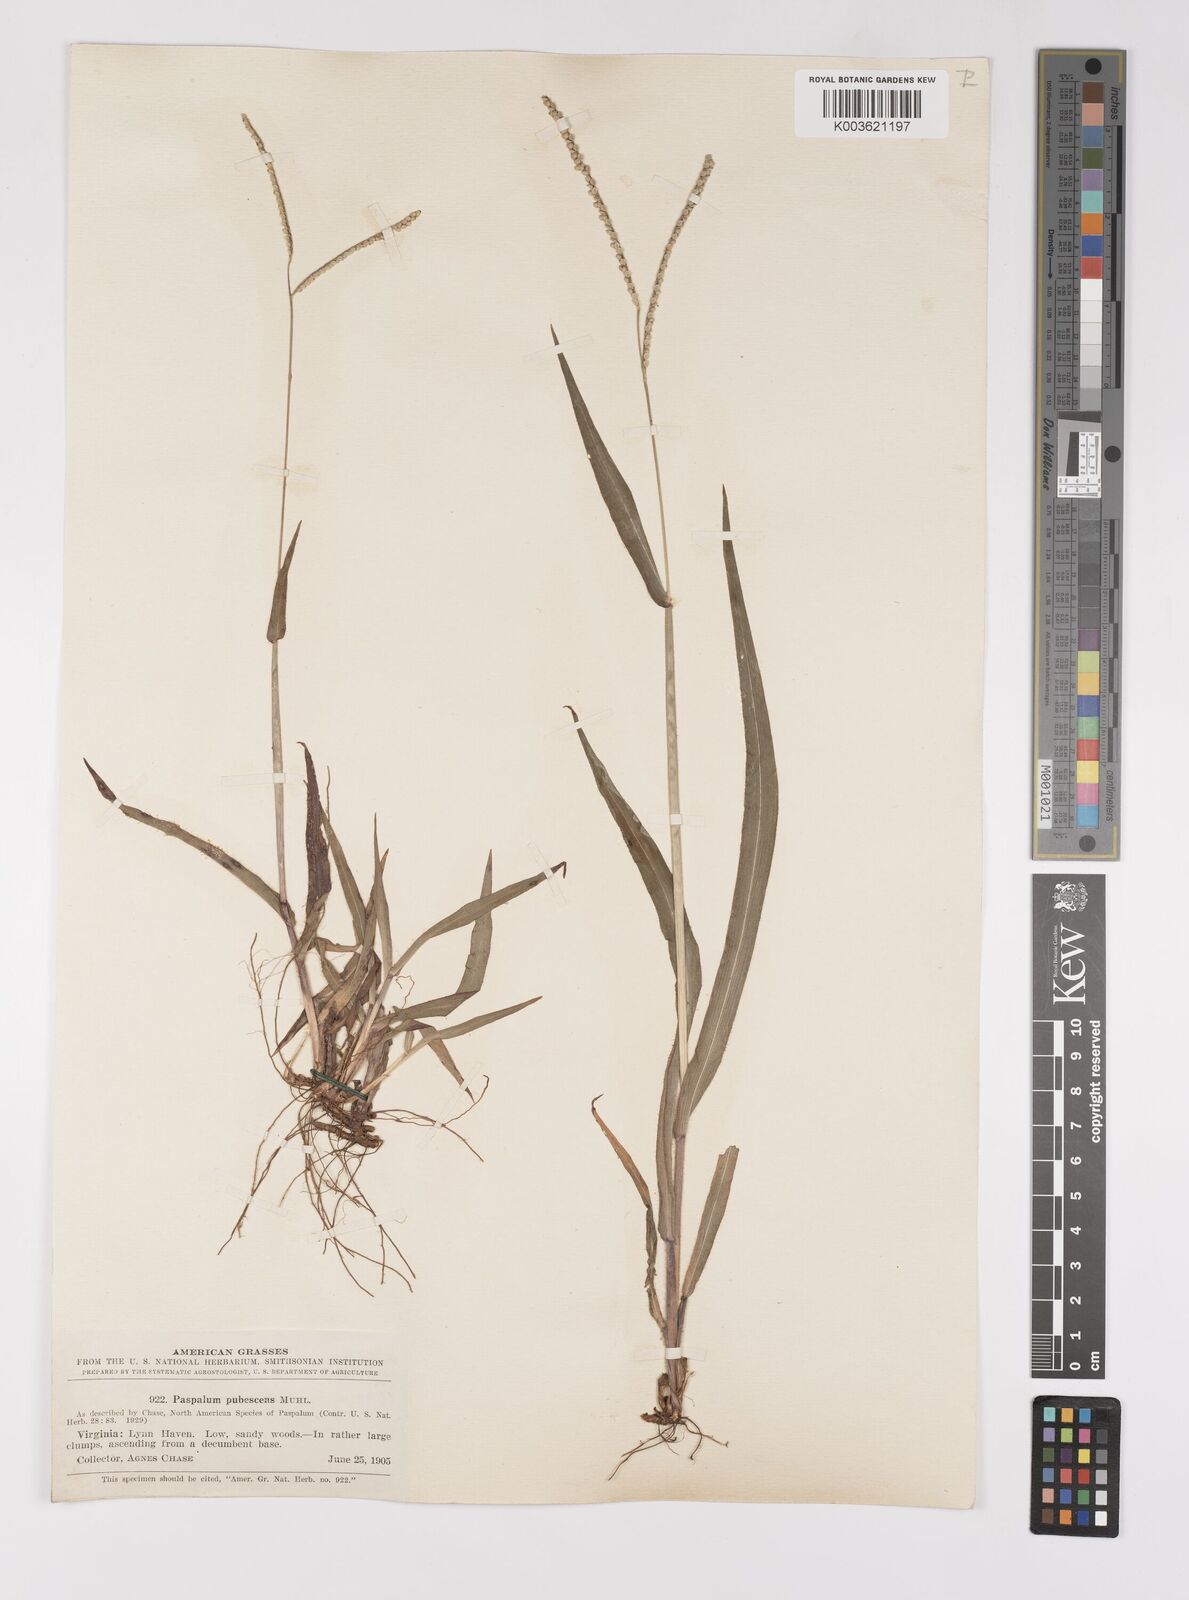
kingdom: Plantae
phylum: Tracheophyta
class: Liliopsida
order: Poales
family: Poaceae
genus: Paspalum
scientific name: Paspalum setaceum
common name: Slender paspalum
